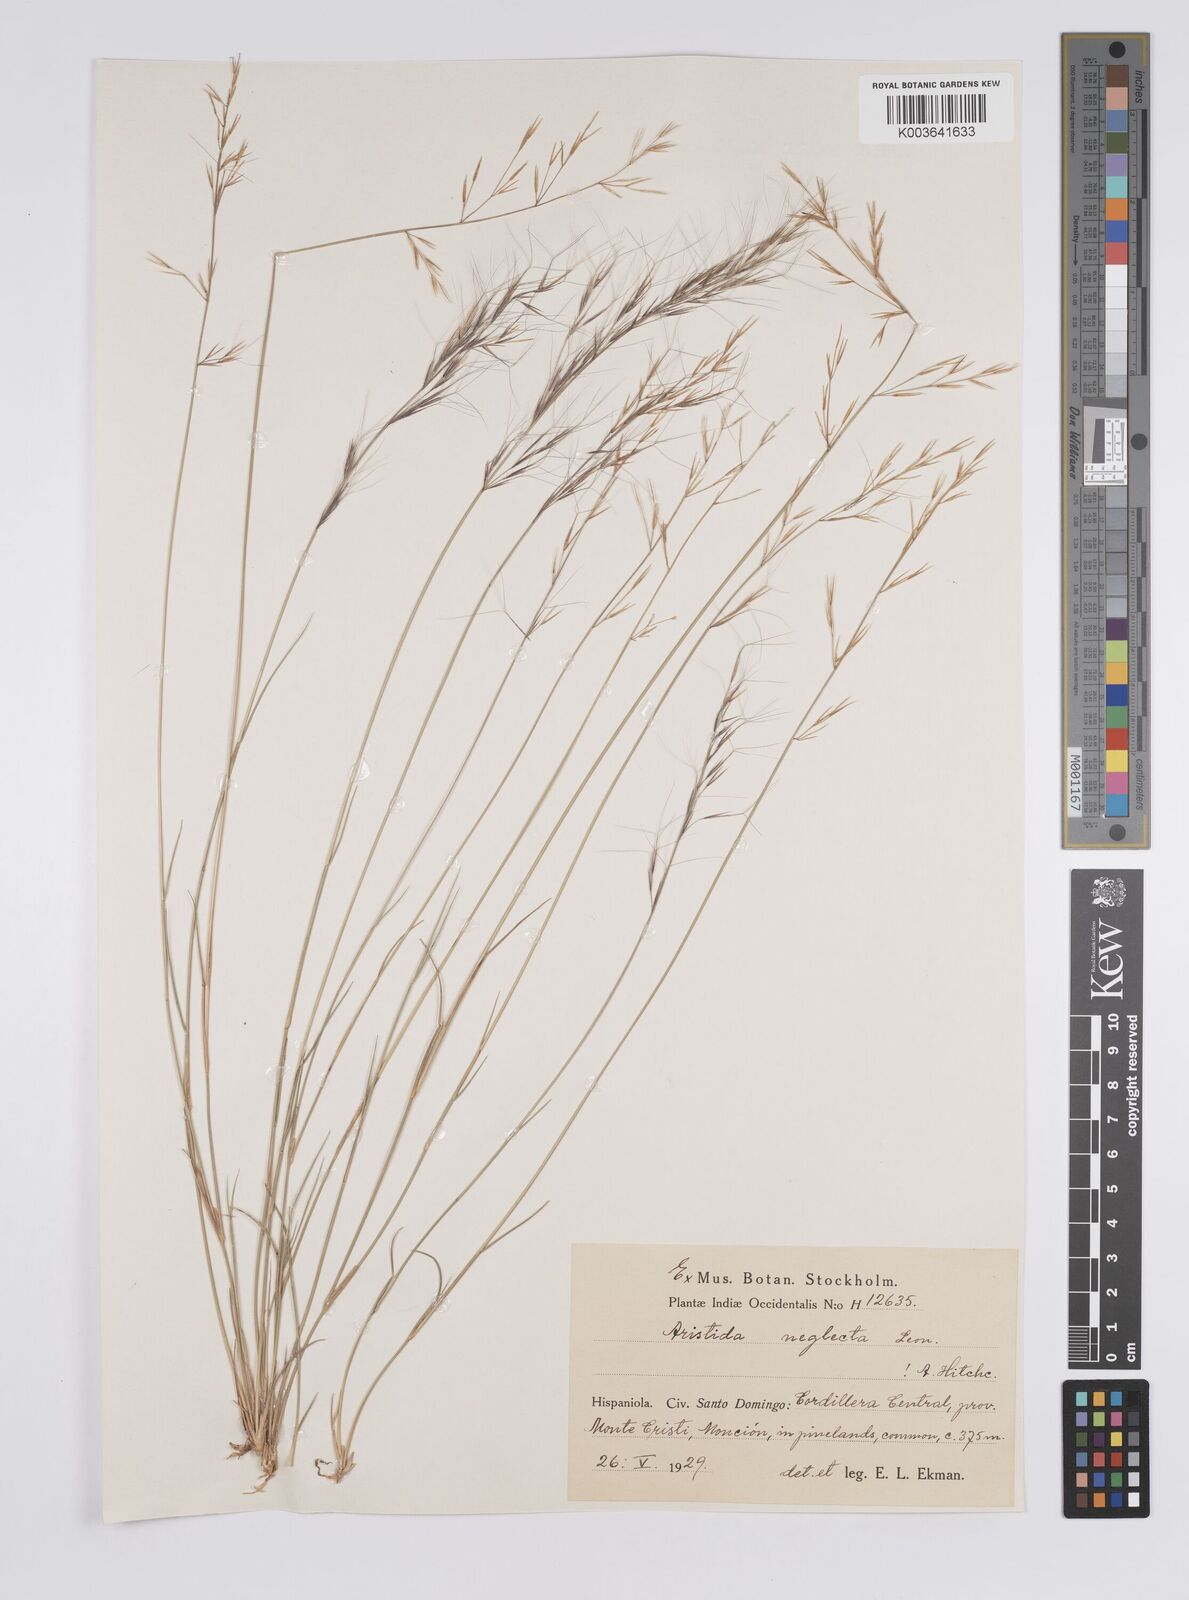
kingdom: Plantae
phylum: Tracheophyta
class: Liliopsida
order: Poales
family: Poaceae
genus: Aristida
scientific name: Aristida neglecta
